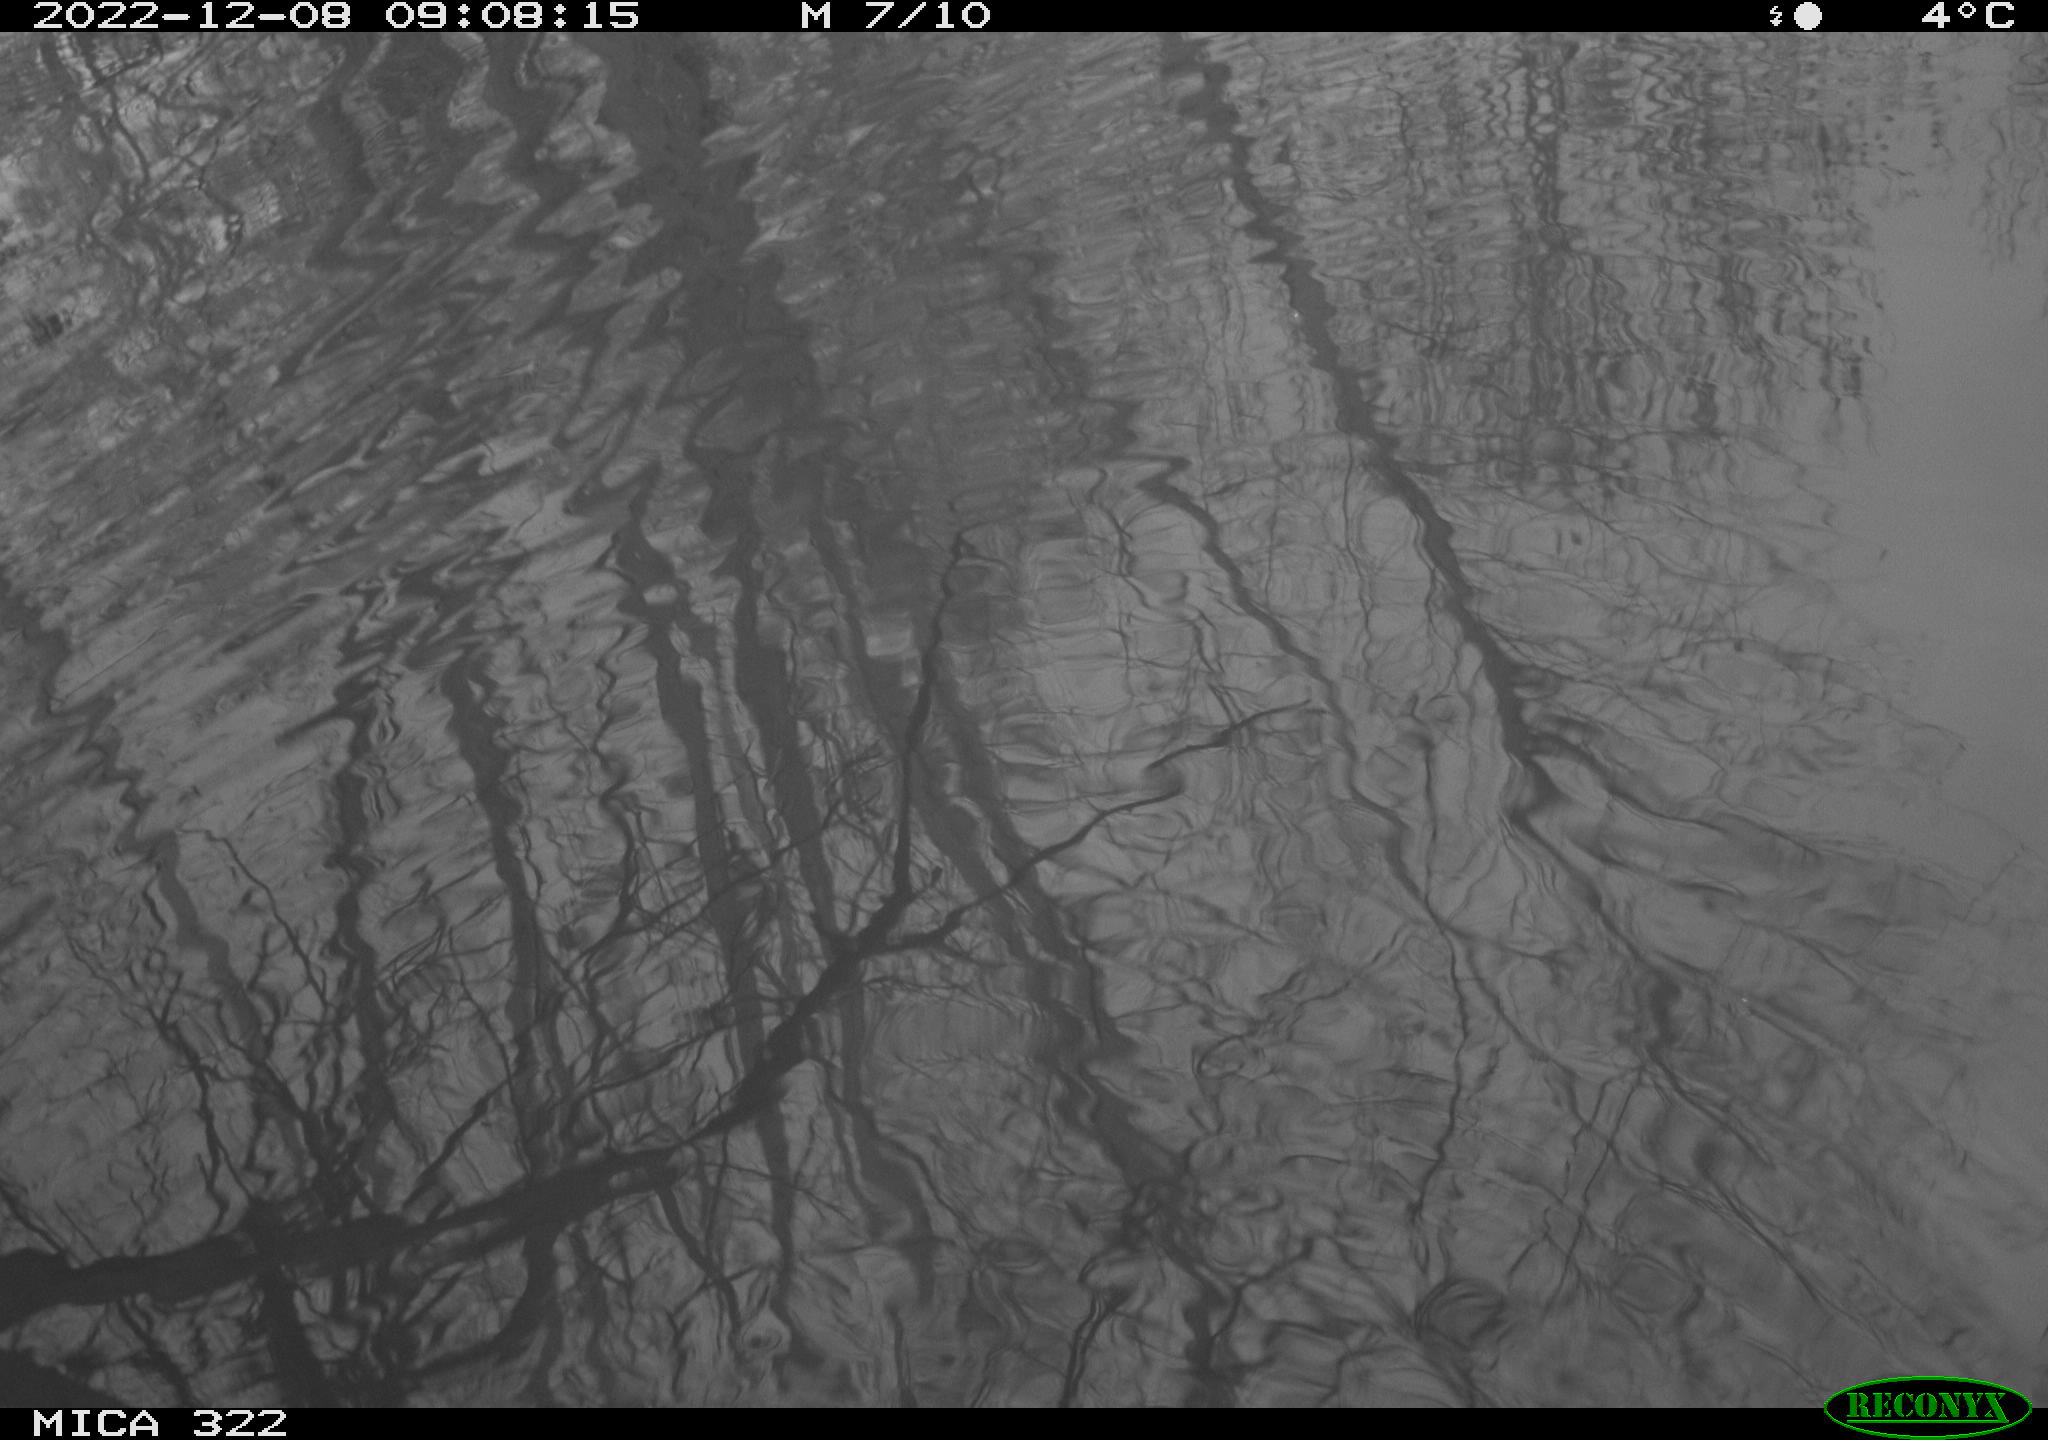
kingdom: Animalia
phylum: Chordata
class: Aves
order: Gruiformes
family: Rallidae
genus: Gallinula
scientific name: Gallinula chloropus
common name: Common moorhen
